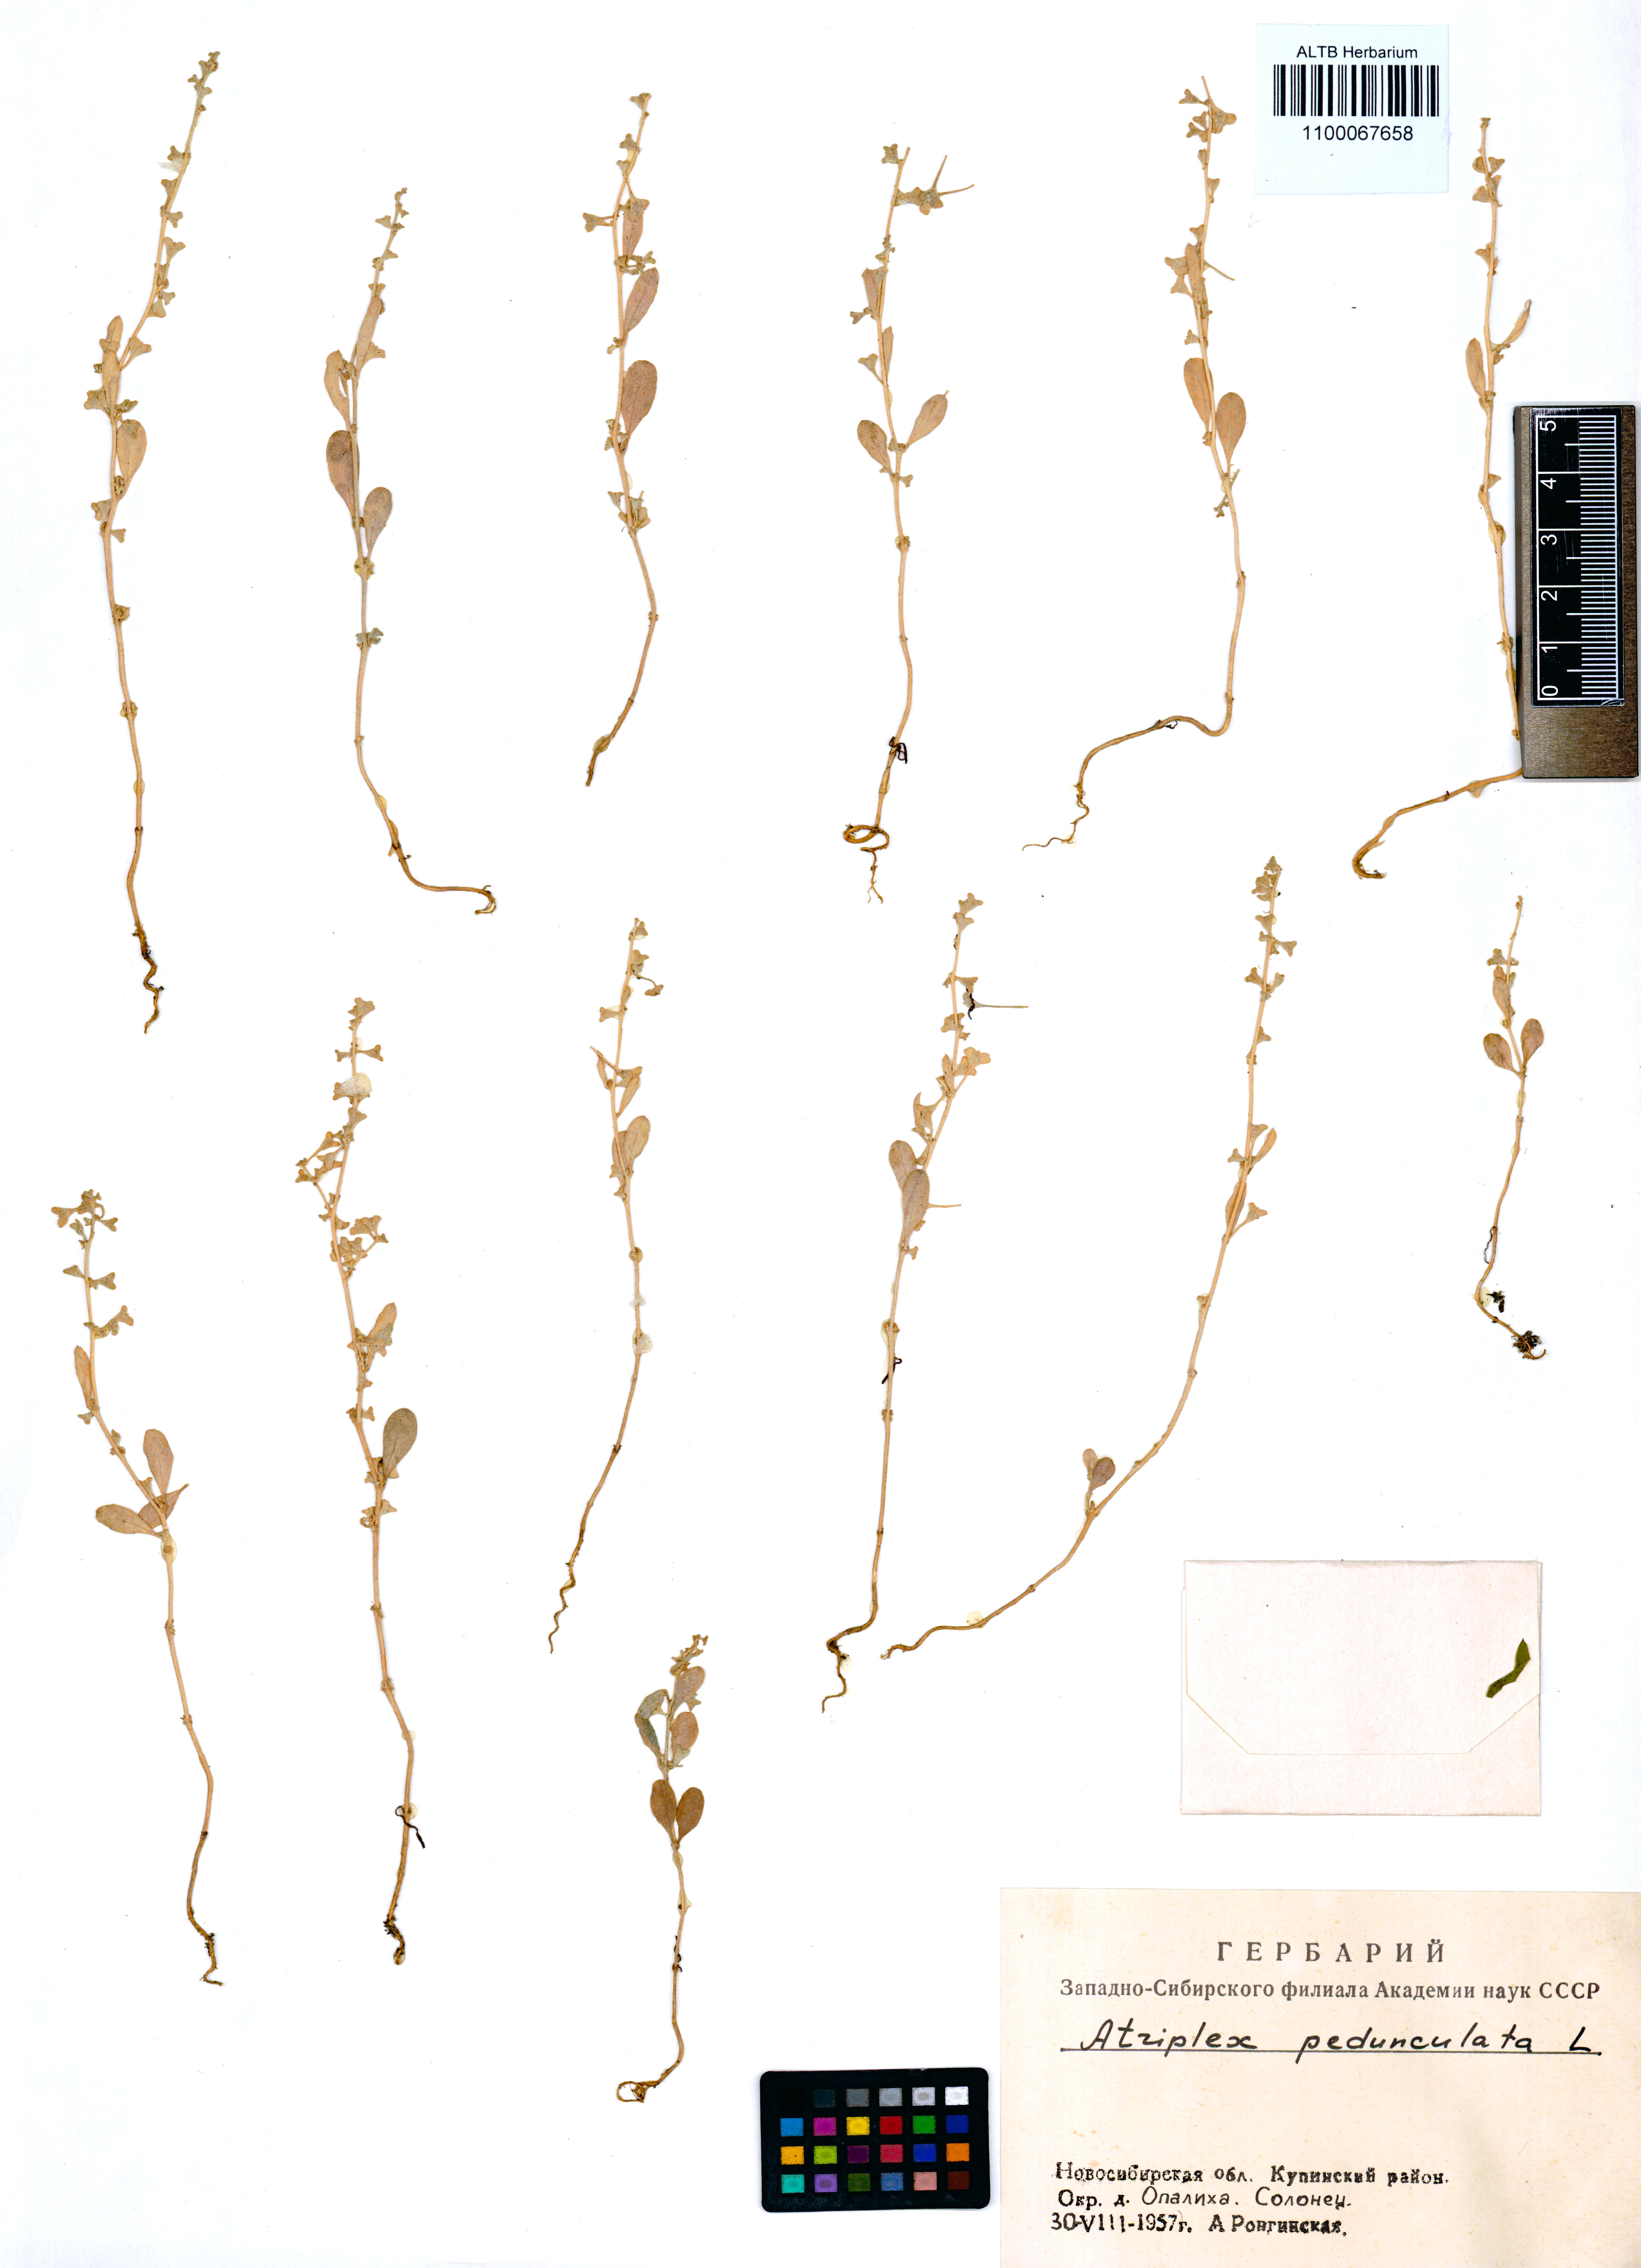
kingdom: Plantae
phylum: Tracheophyta
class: Magnoliopsida
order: Caryophyllales
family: Amaranthaceae
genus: Halimione
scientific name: Halimione pedunculata
